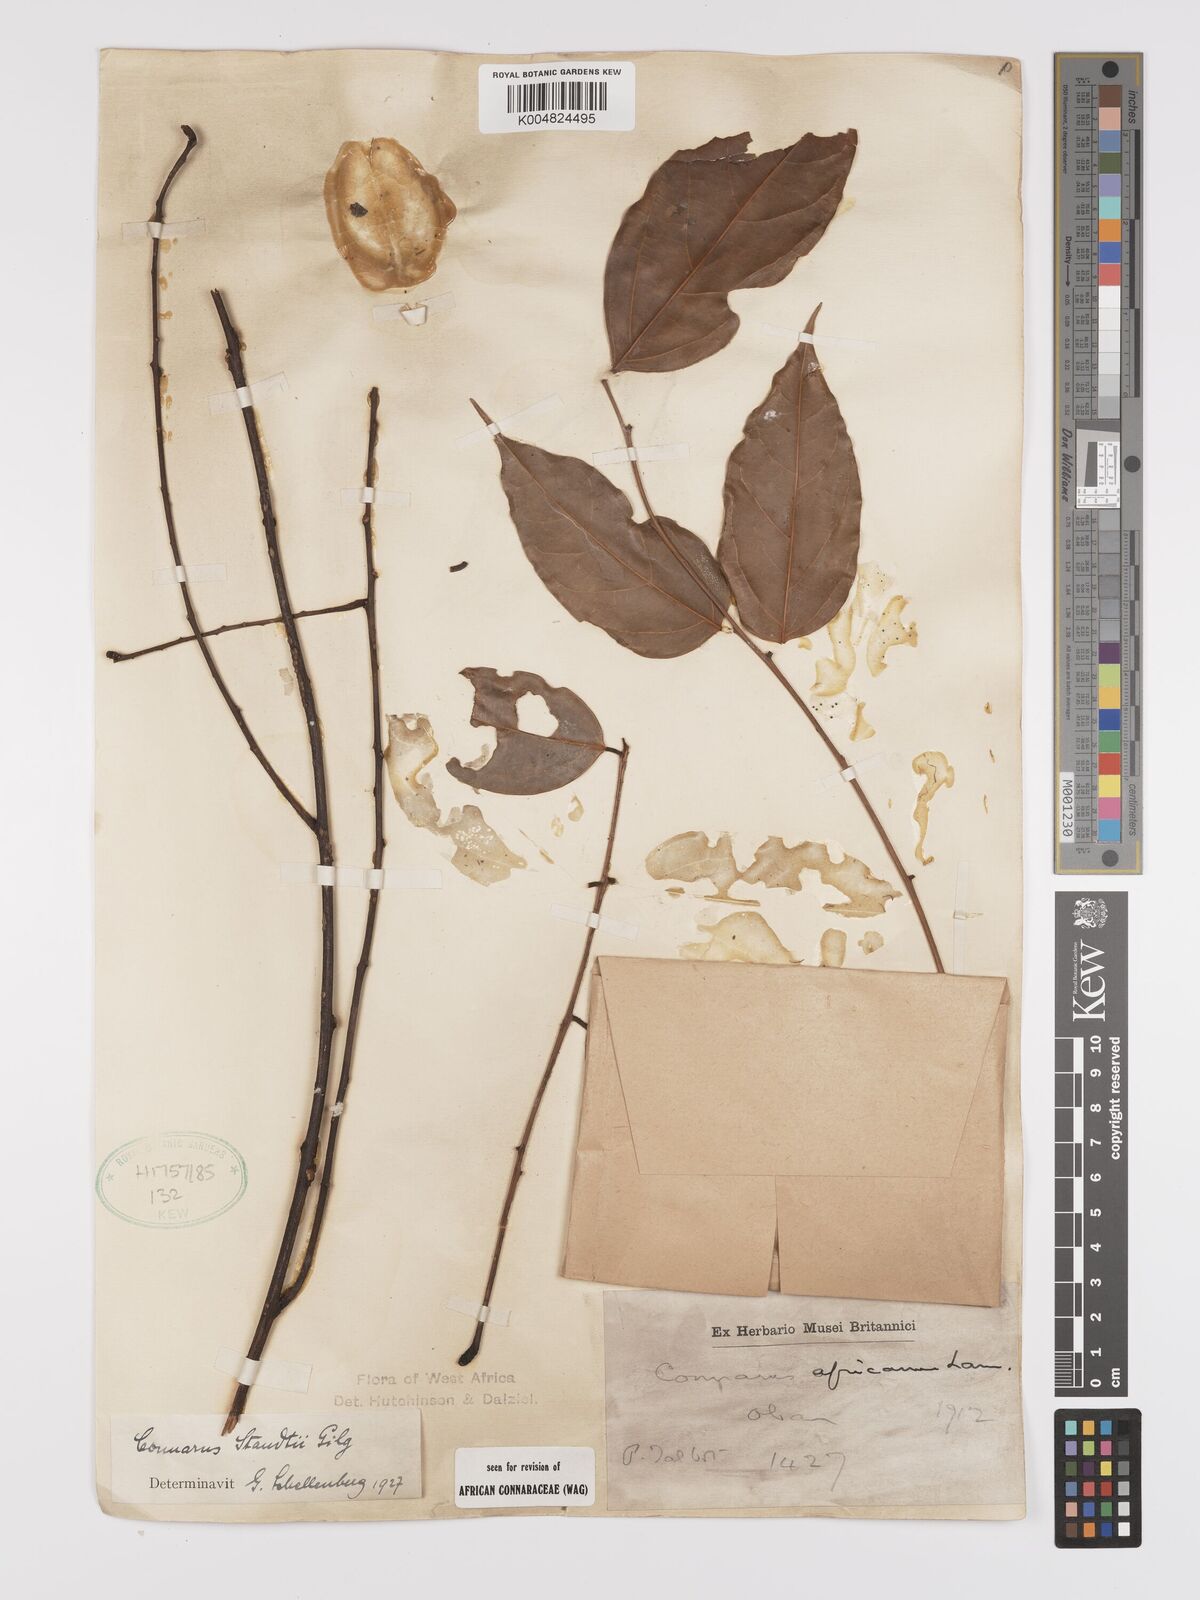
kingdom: Plantae
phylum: Tracheophyta
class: Magnoliopsida
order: Oxalidales
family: Connaraceae
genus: Connarus
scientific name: Connarus staudtii
